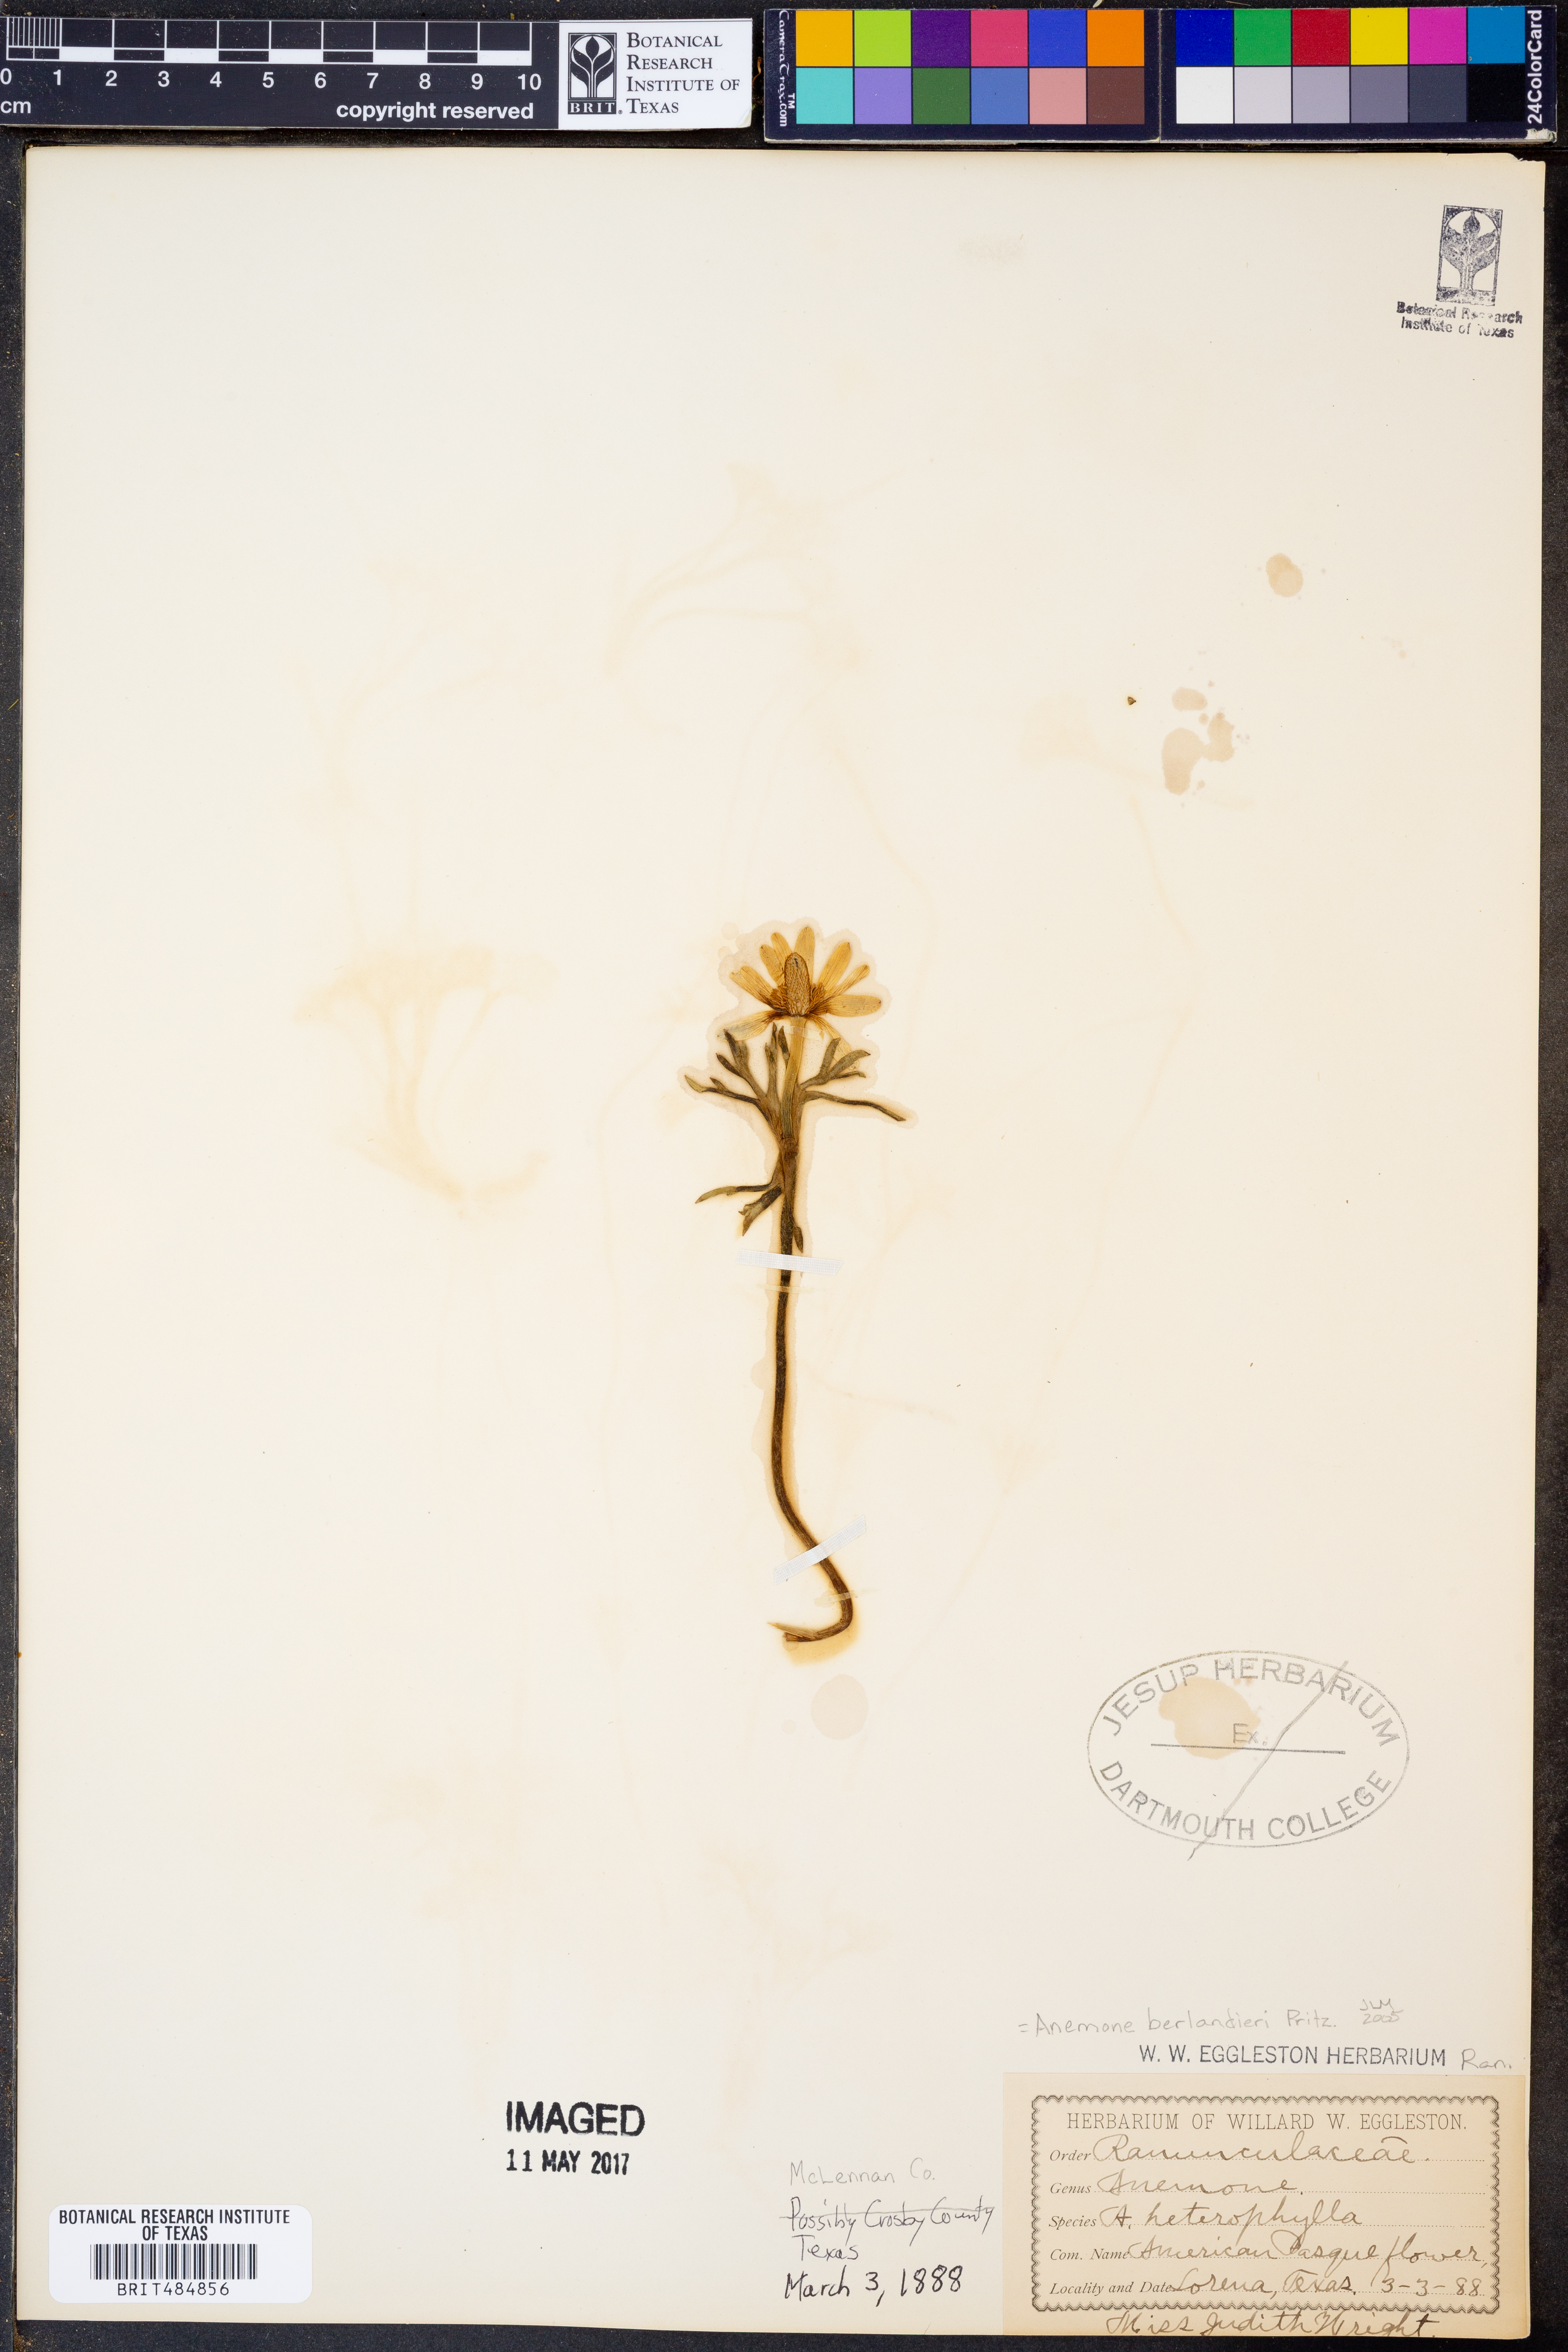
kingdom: Plantae
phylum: Tracheophyta
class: Magnoliopsida
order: Ranunculales
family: Ranunculaceae
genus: Anemone
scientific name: Anemone berlandieri
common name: Ten-petal anemone
